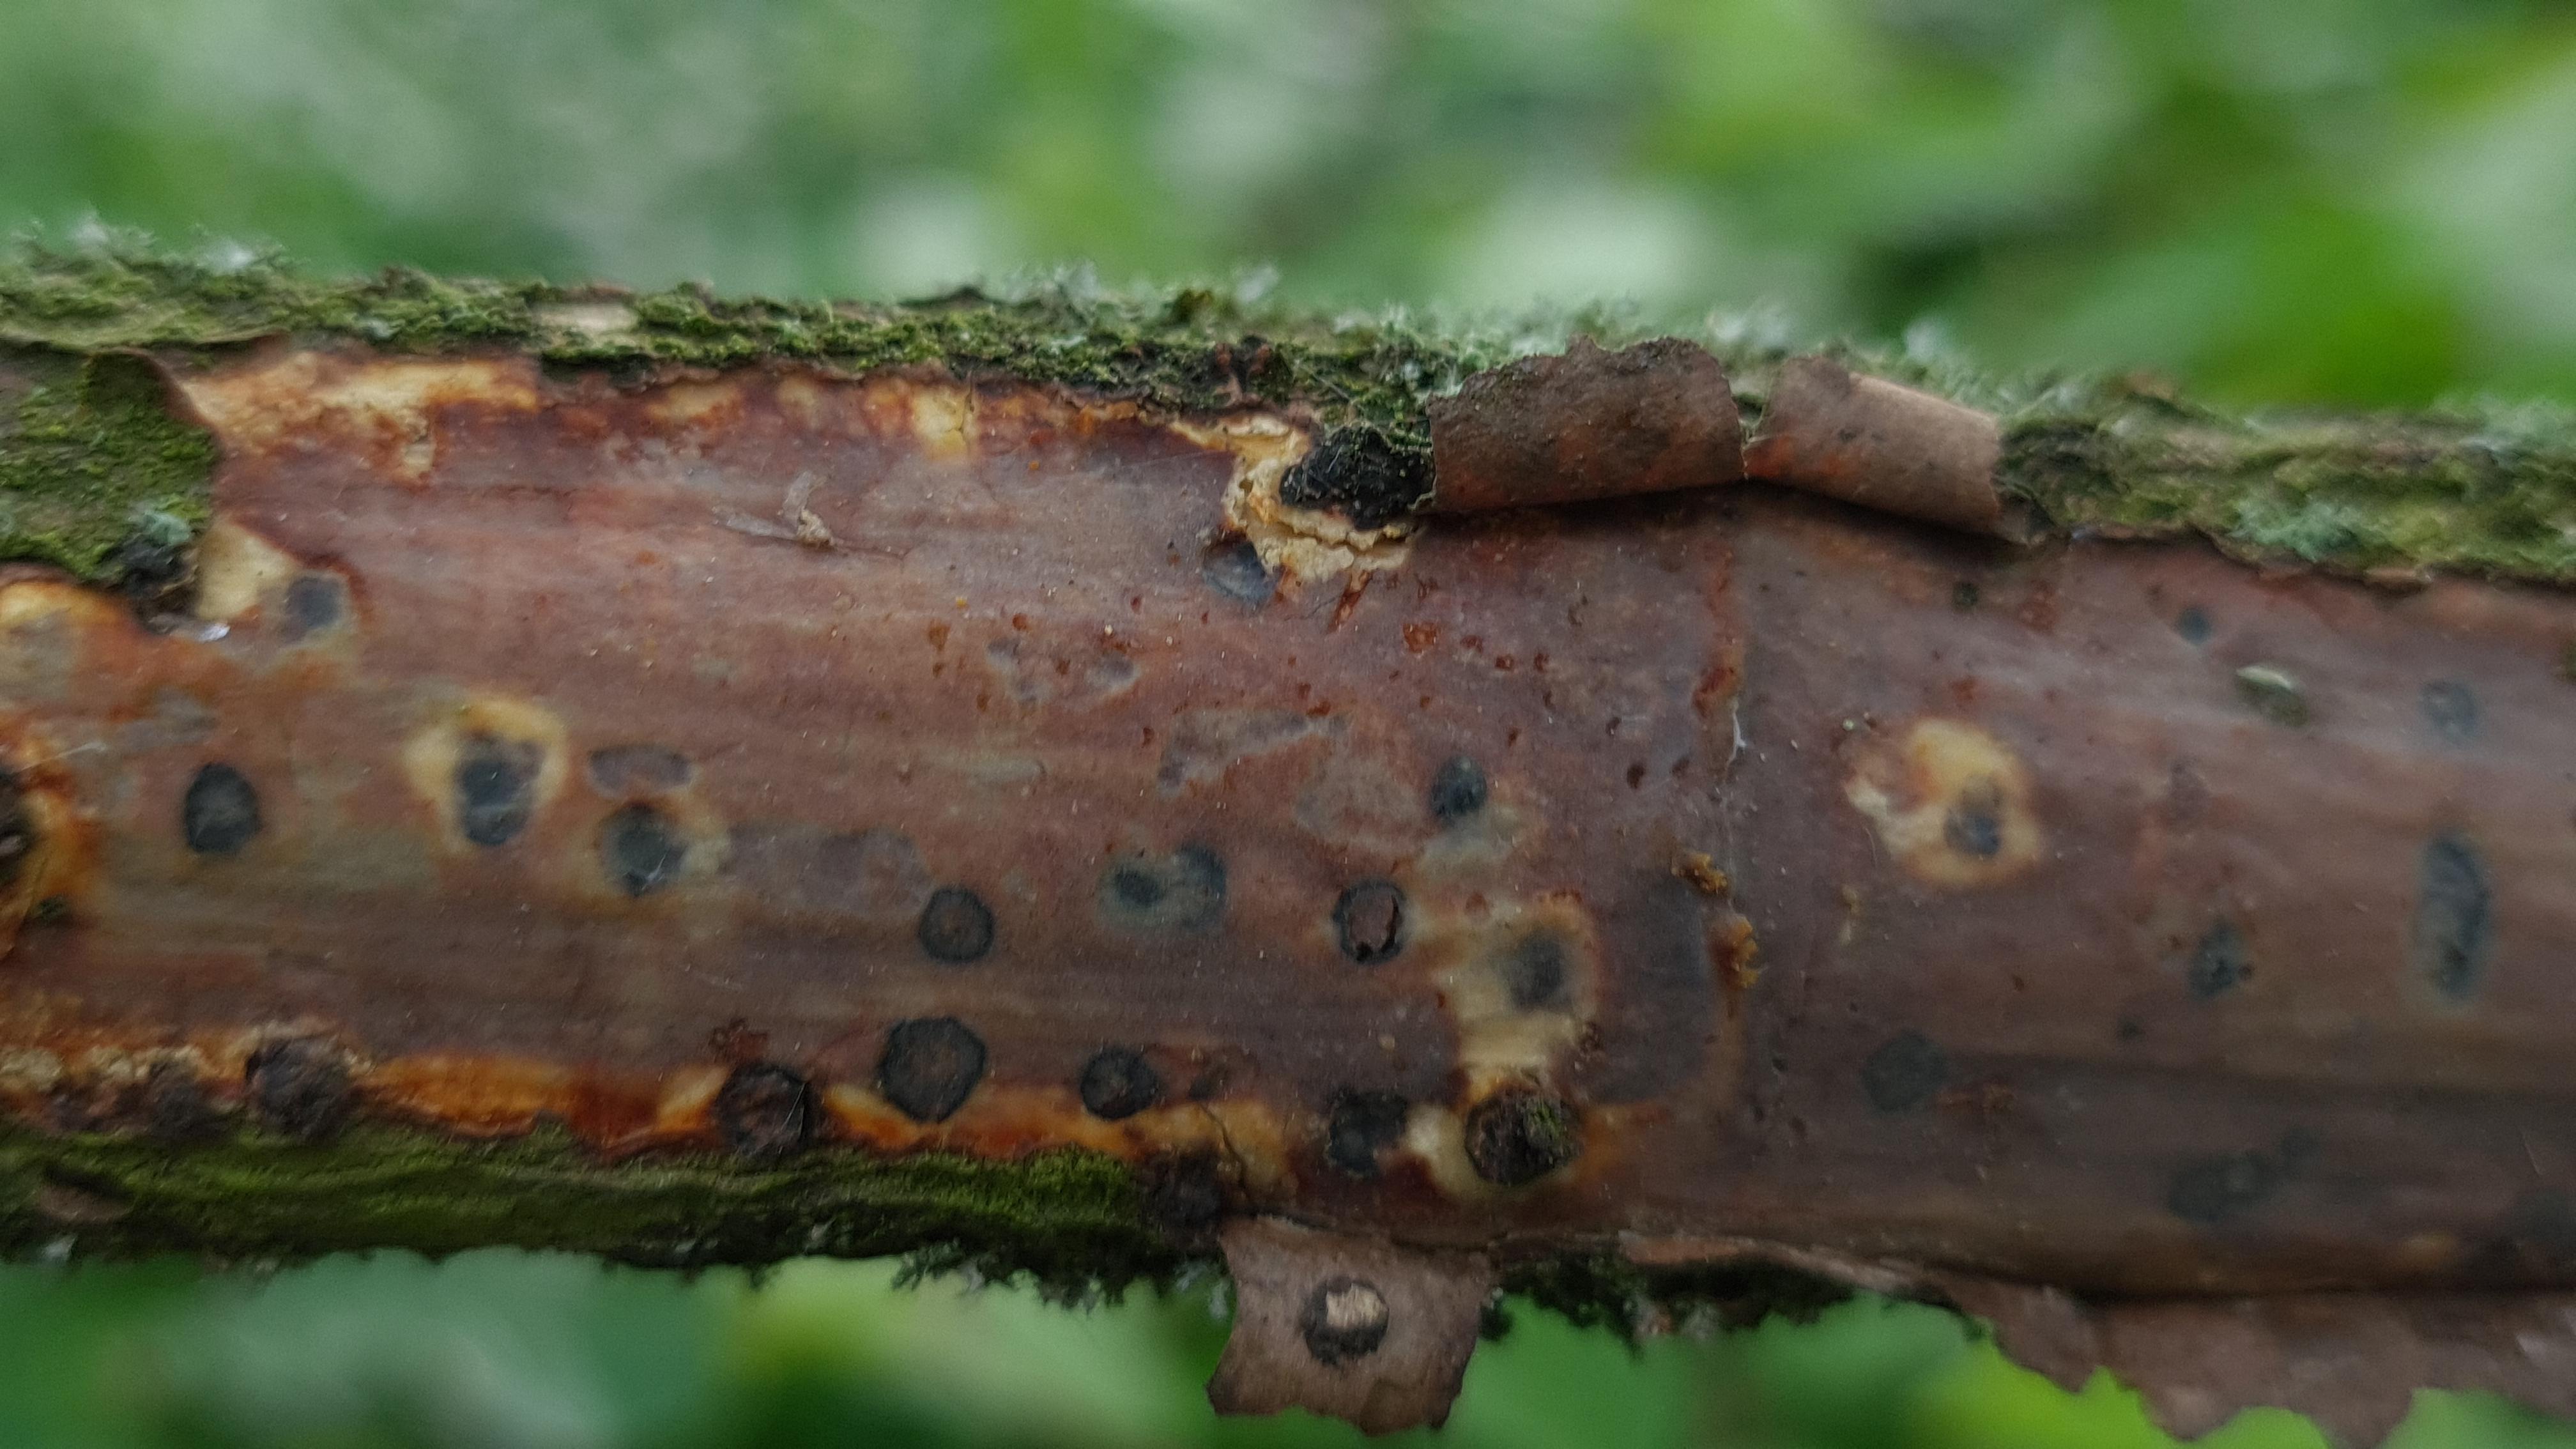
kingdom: Fungi
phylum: Basidiomycota
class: Agaricomycetes
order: Corticiales
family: Vuilleminiaceae
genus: Vuilleminia
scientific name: Vuilleminia comedens
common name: almindelig barksprænger
